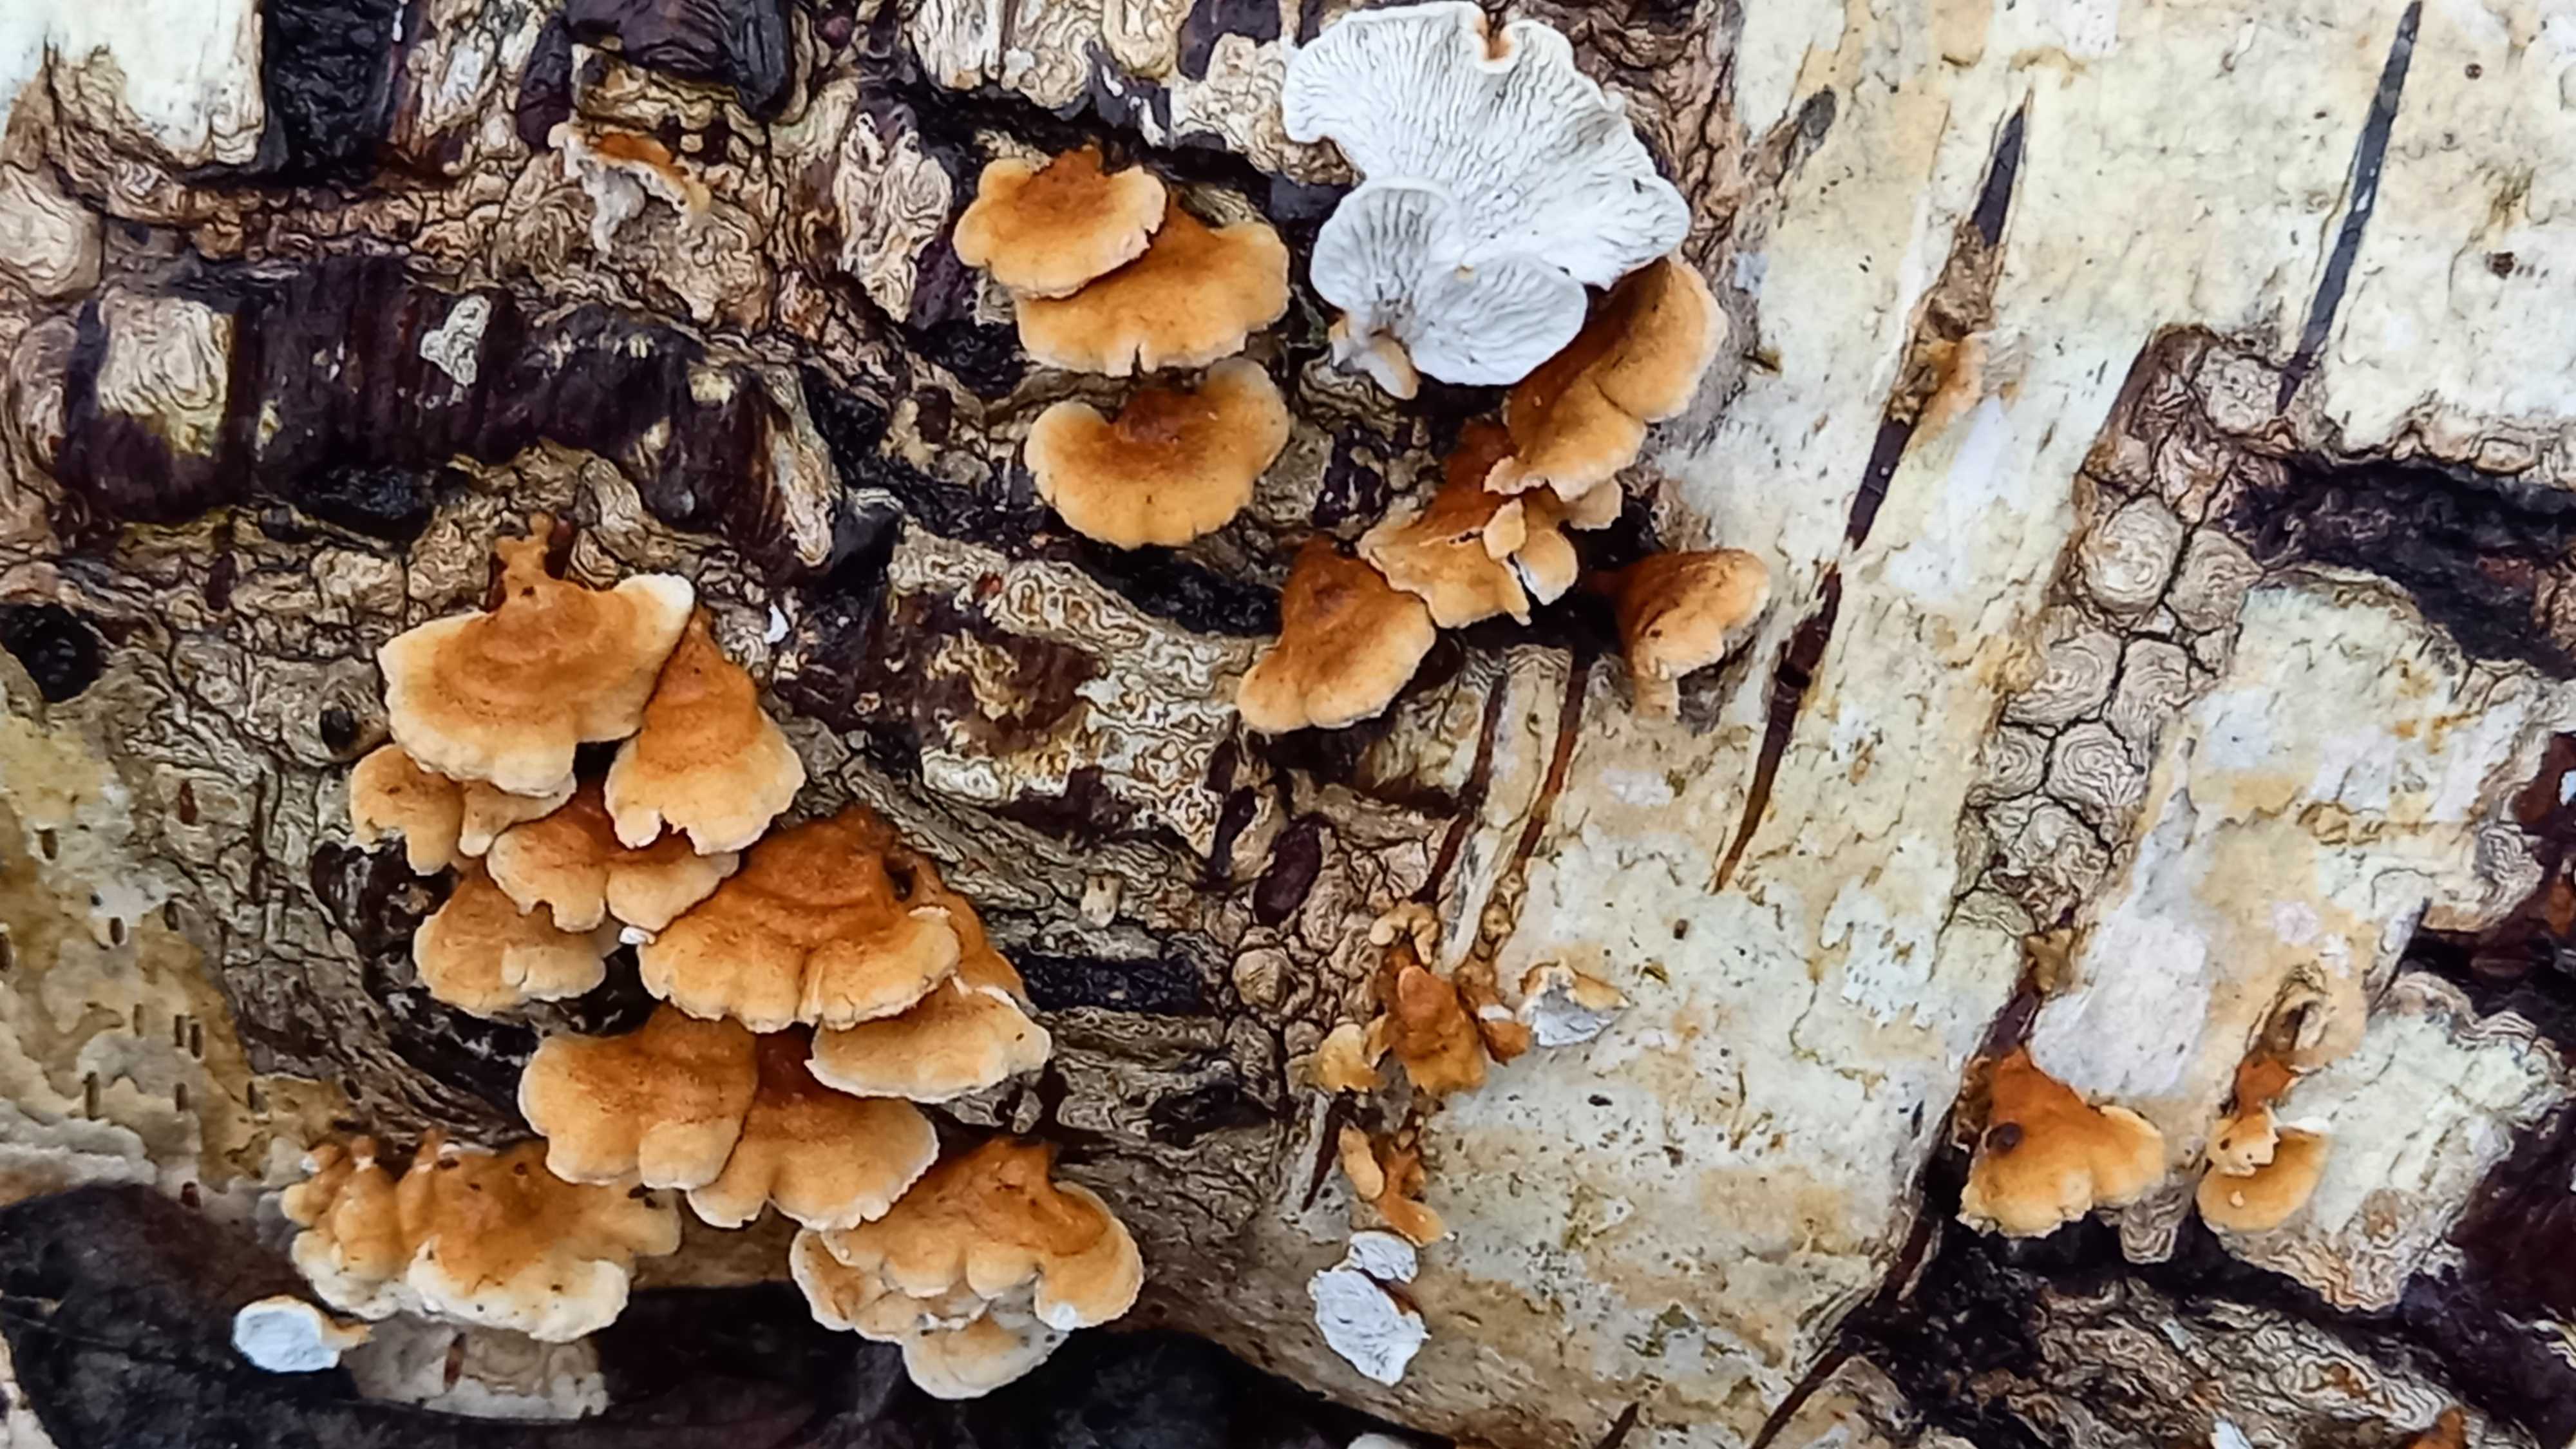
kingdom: Fungi
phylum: Basidiomycota
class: Agaricomycetes
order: Amylocorticiales
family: Amylocorticiaceae
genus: Plicaturopsis
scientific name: Plicaturopsis crispa
